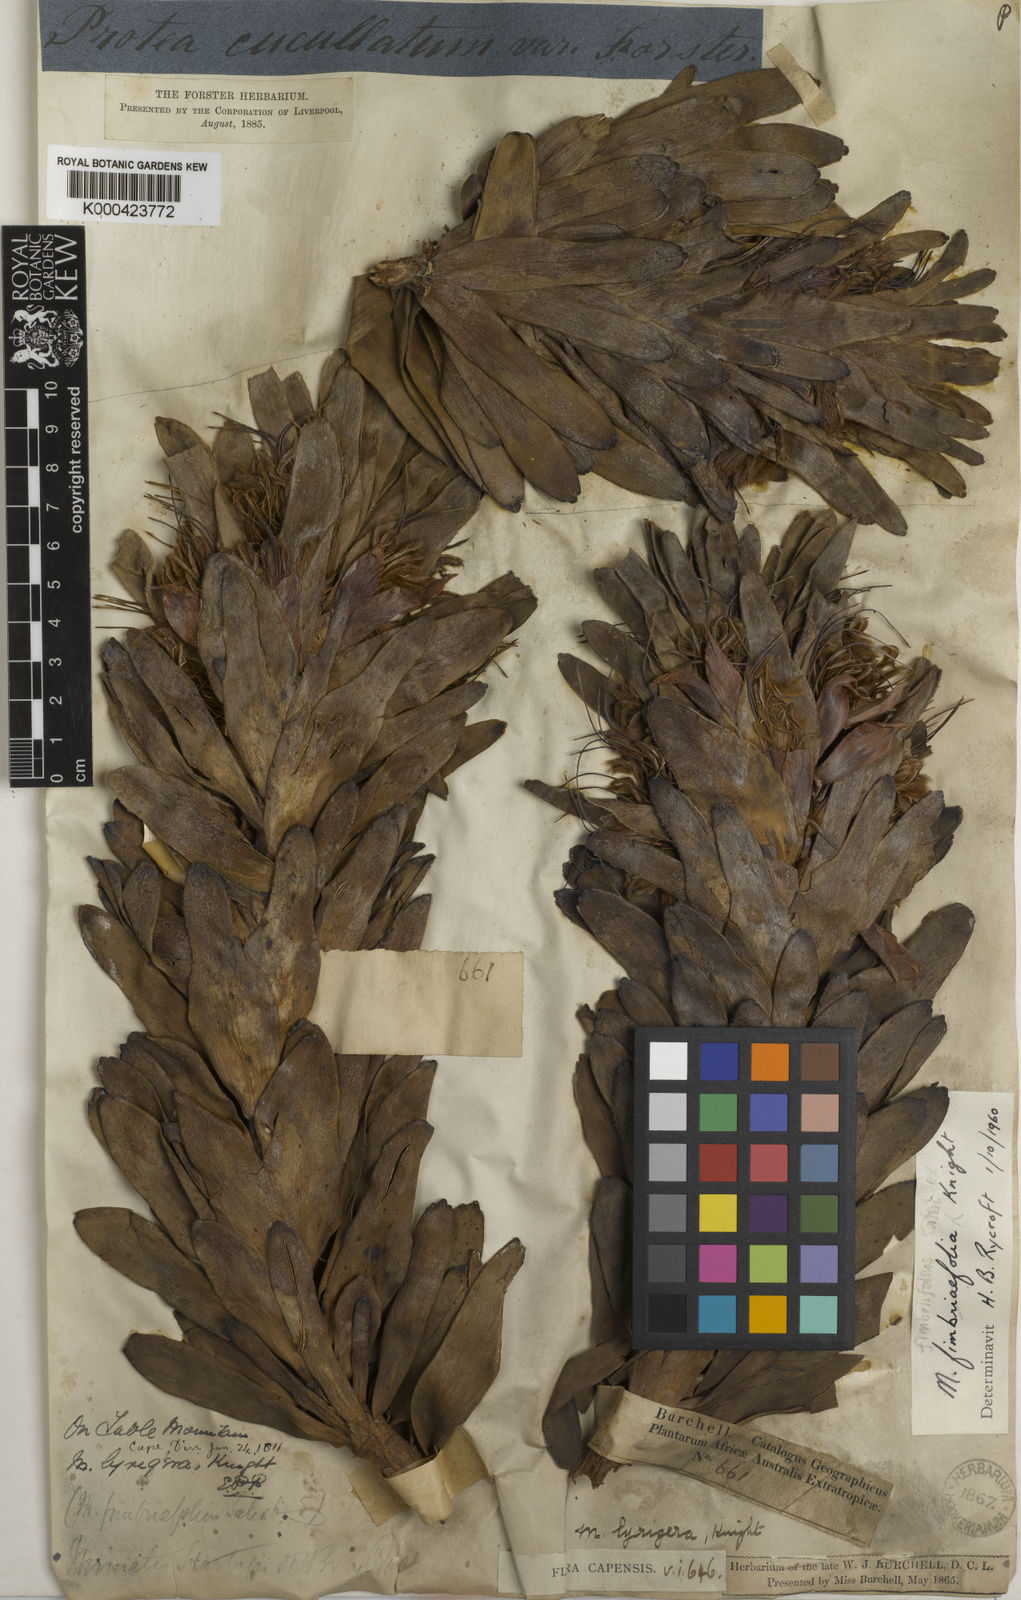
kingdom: Plantae
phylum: Tracheophyta
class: Magnoliopsida
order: Proteales
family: Proteaceae
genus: Sorocephalus
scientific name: Sorocephalus pinifolius
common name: Long-leaf clusterhead
